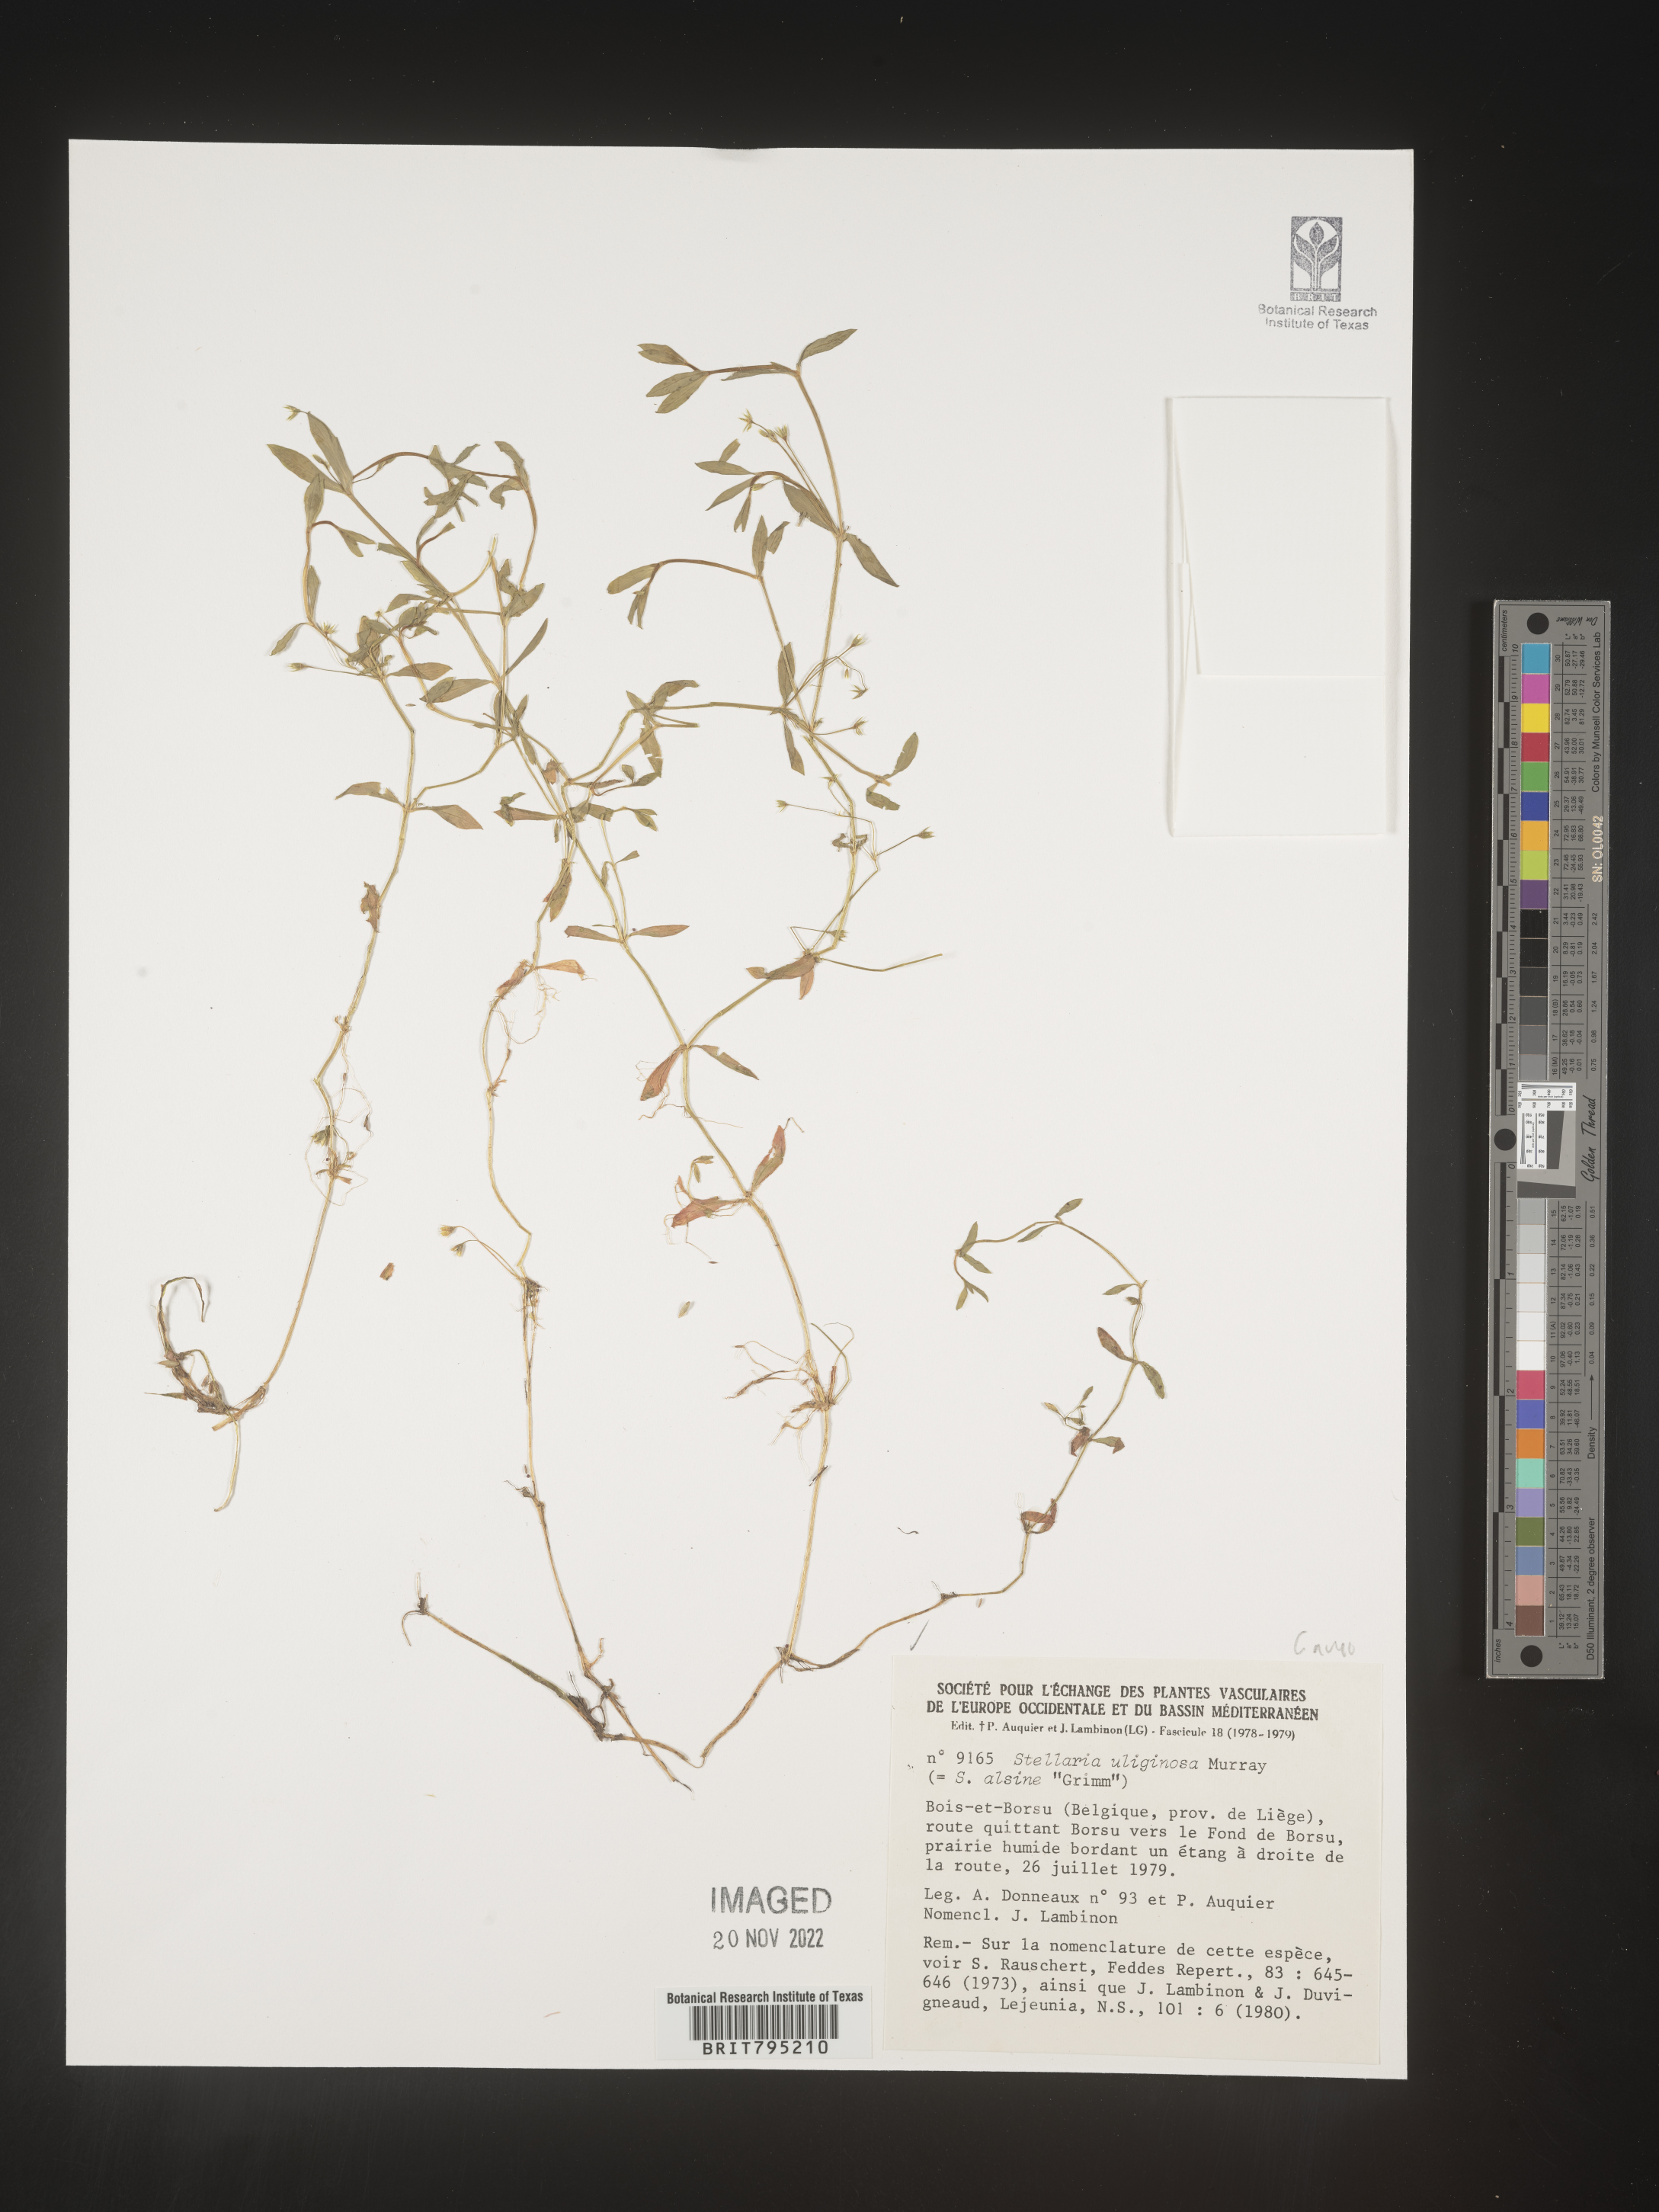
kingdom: Plantae
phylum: Tracheophyta
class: Magnoliopsida
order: Caryophyllales
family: Caryophyllaceae
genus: Stellaria
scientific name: Stellaria
